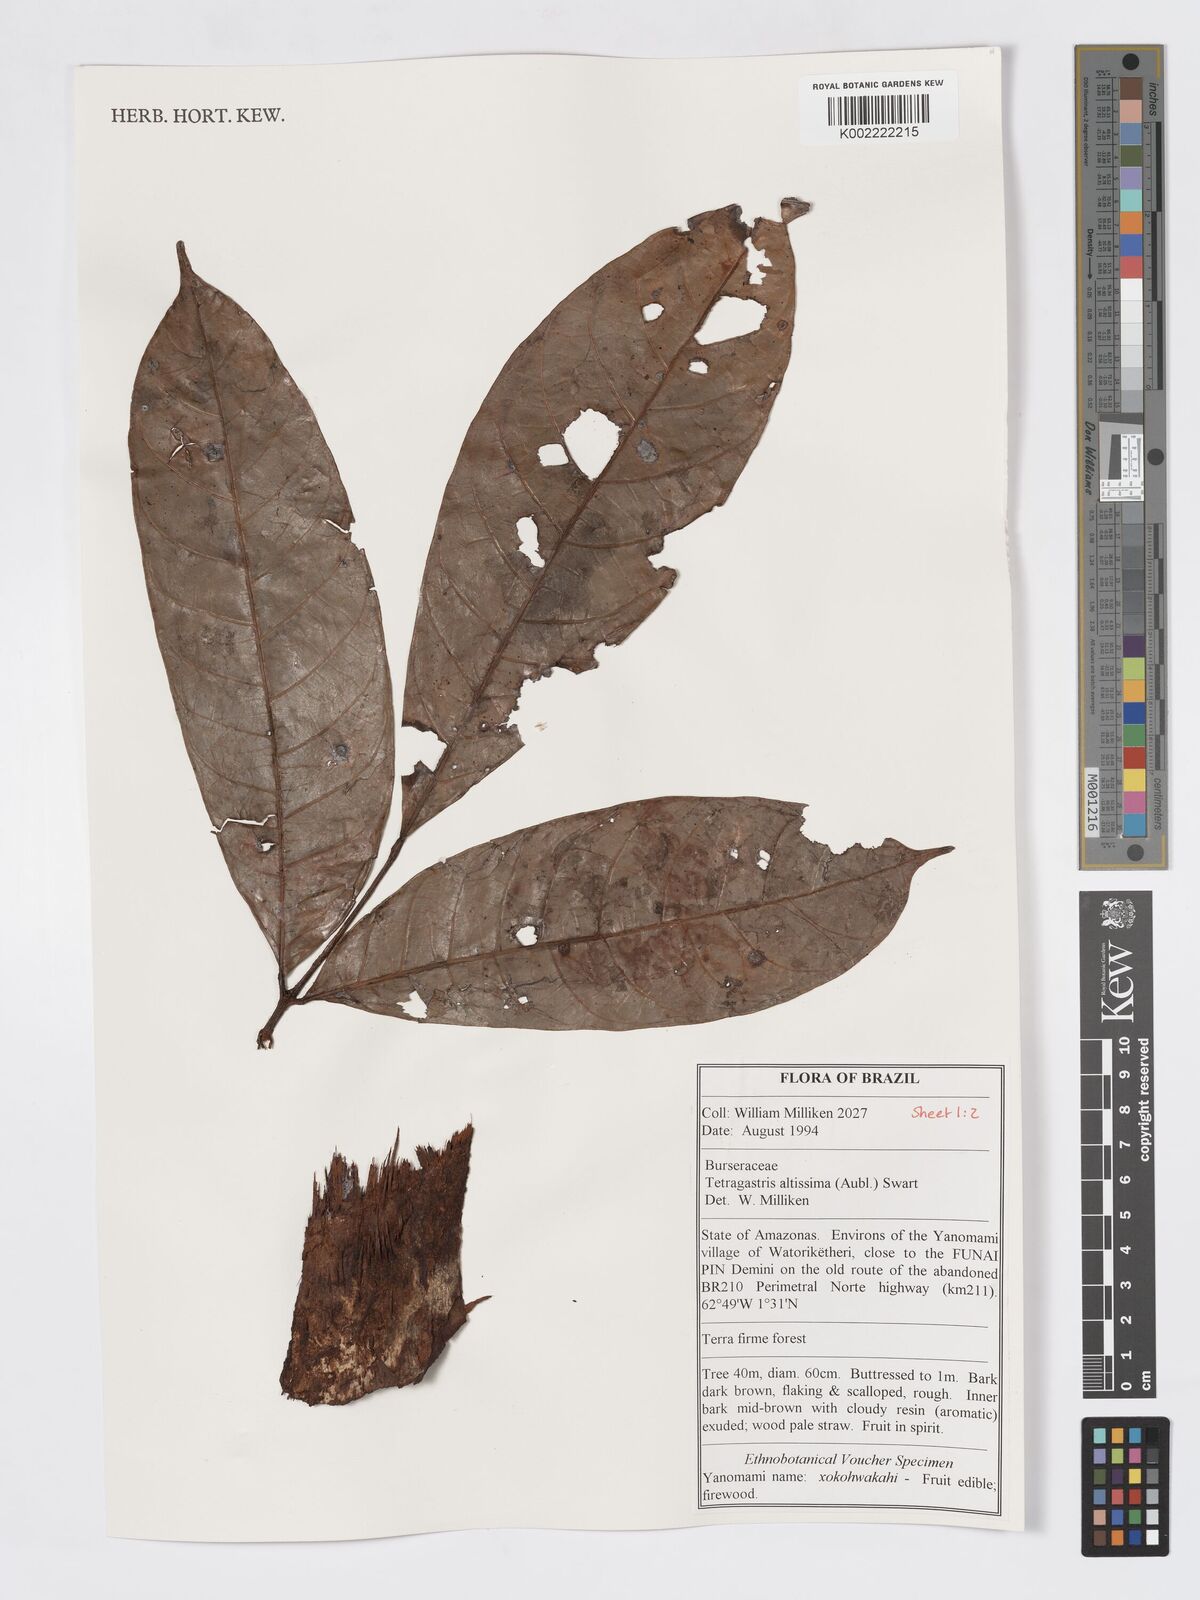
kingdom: Plantae
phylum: Tracheophyta
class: Magnoliopsida
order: Sapindales
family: Burseraceae
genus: Tetragastris
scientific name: Tetragastris altissima
